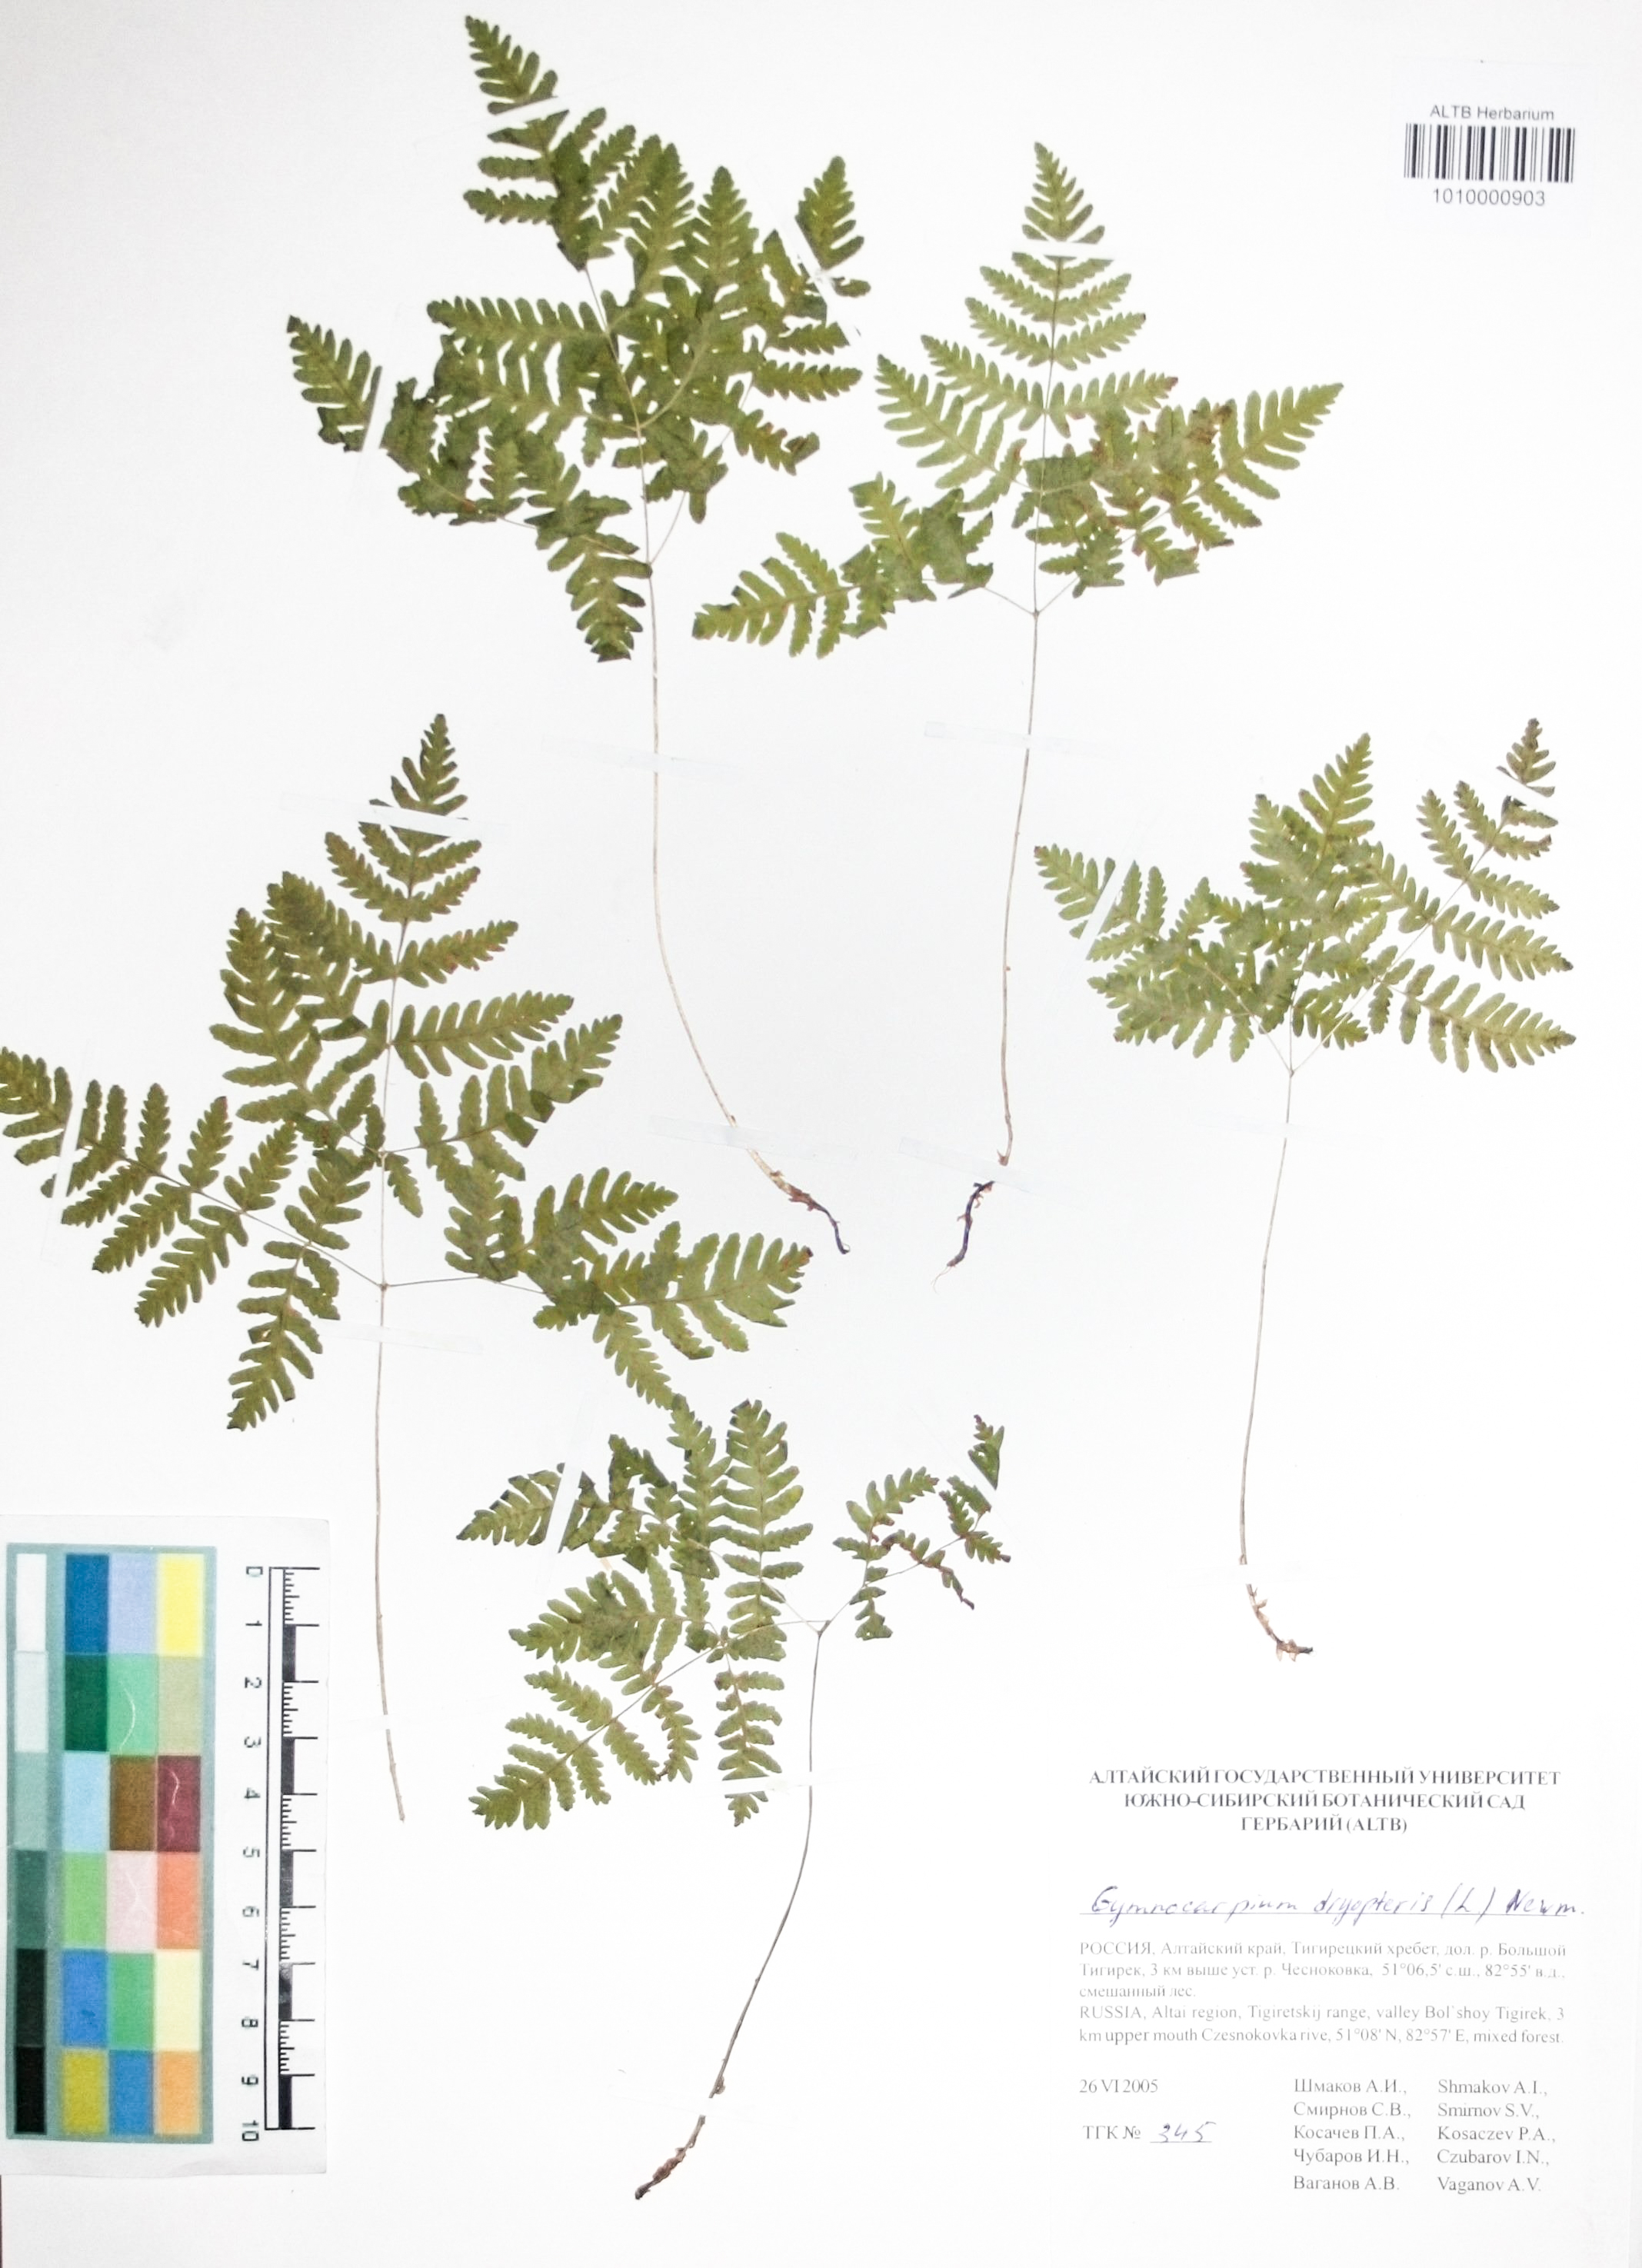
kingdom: Plantae
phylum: Tracheophyta
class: Polypodiopsida
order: Polypodiales
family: Cystopteridaceae
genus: Gymnocarpium
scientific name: Gymnocarpium dryopteris
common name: Oak fern
